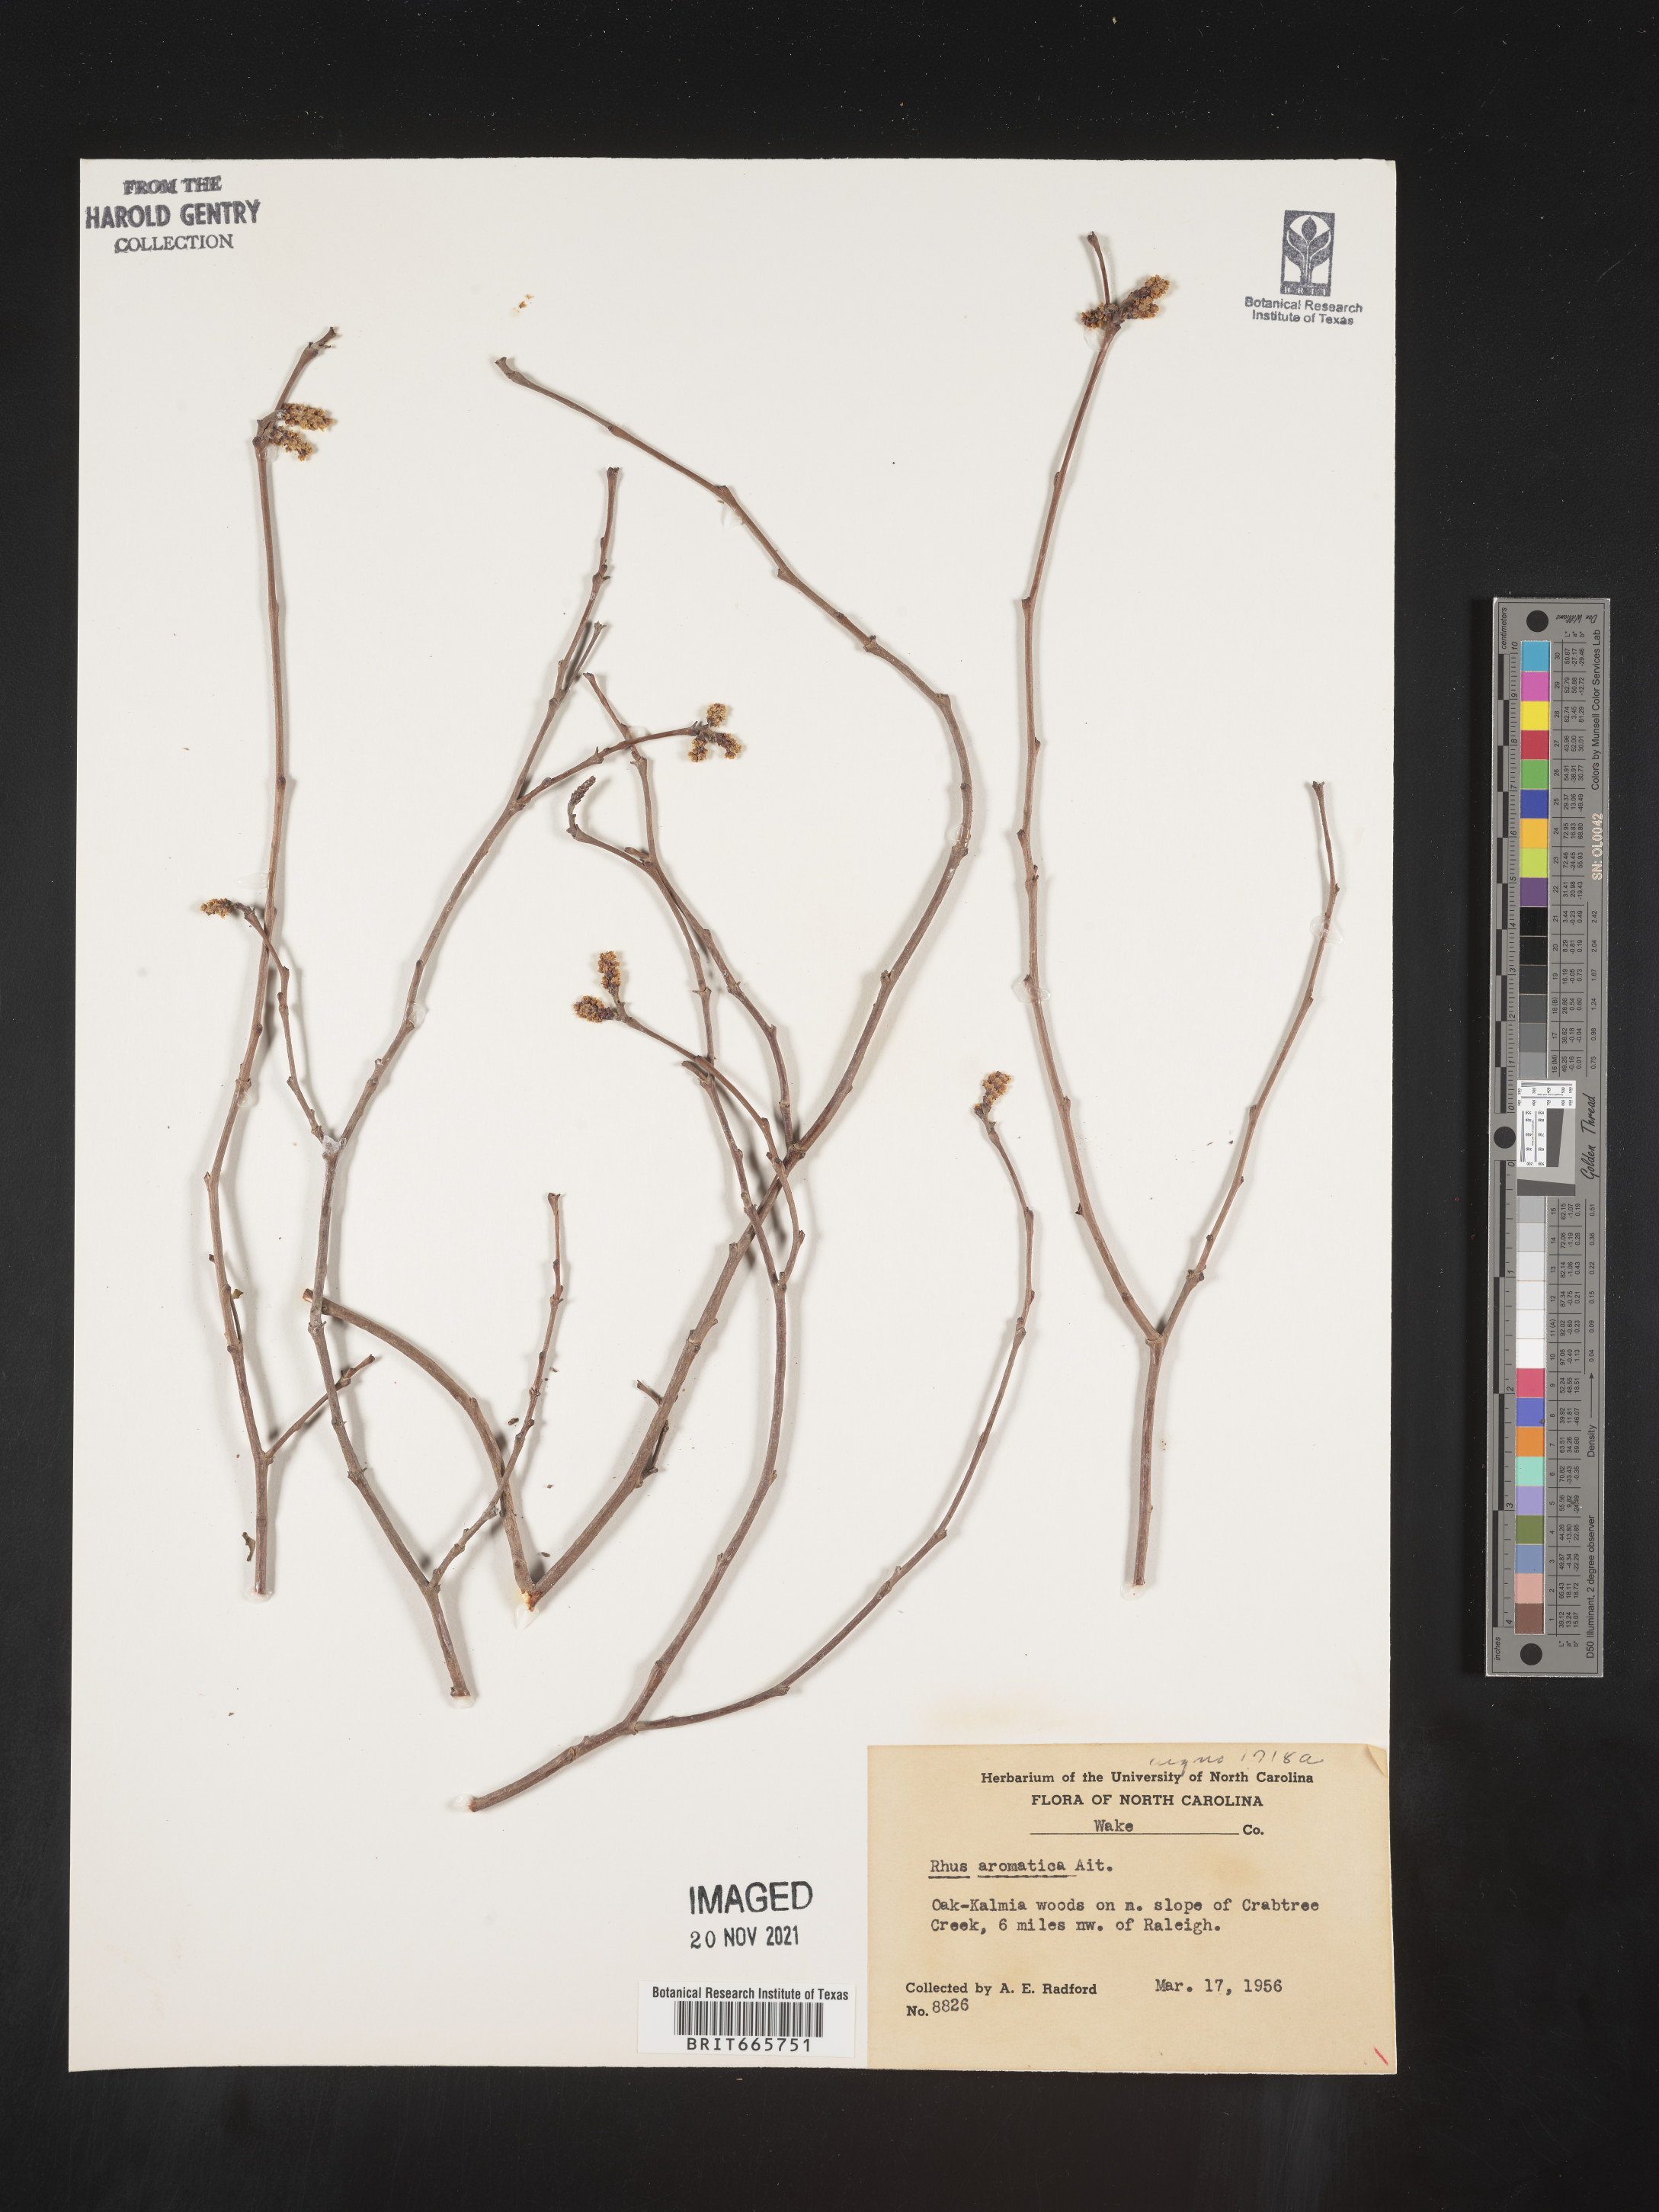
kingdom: Plantae
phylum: Tracheophyta
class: Magnoliopsida
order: Sapindales
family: Anacardiaceae
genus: Rhus
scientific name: Rhus aromatica
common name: Aromatic sumac
